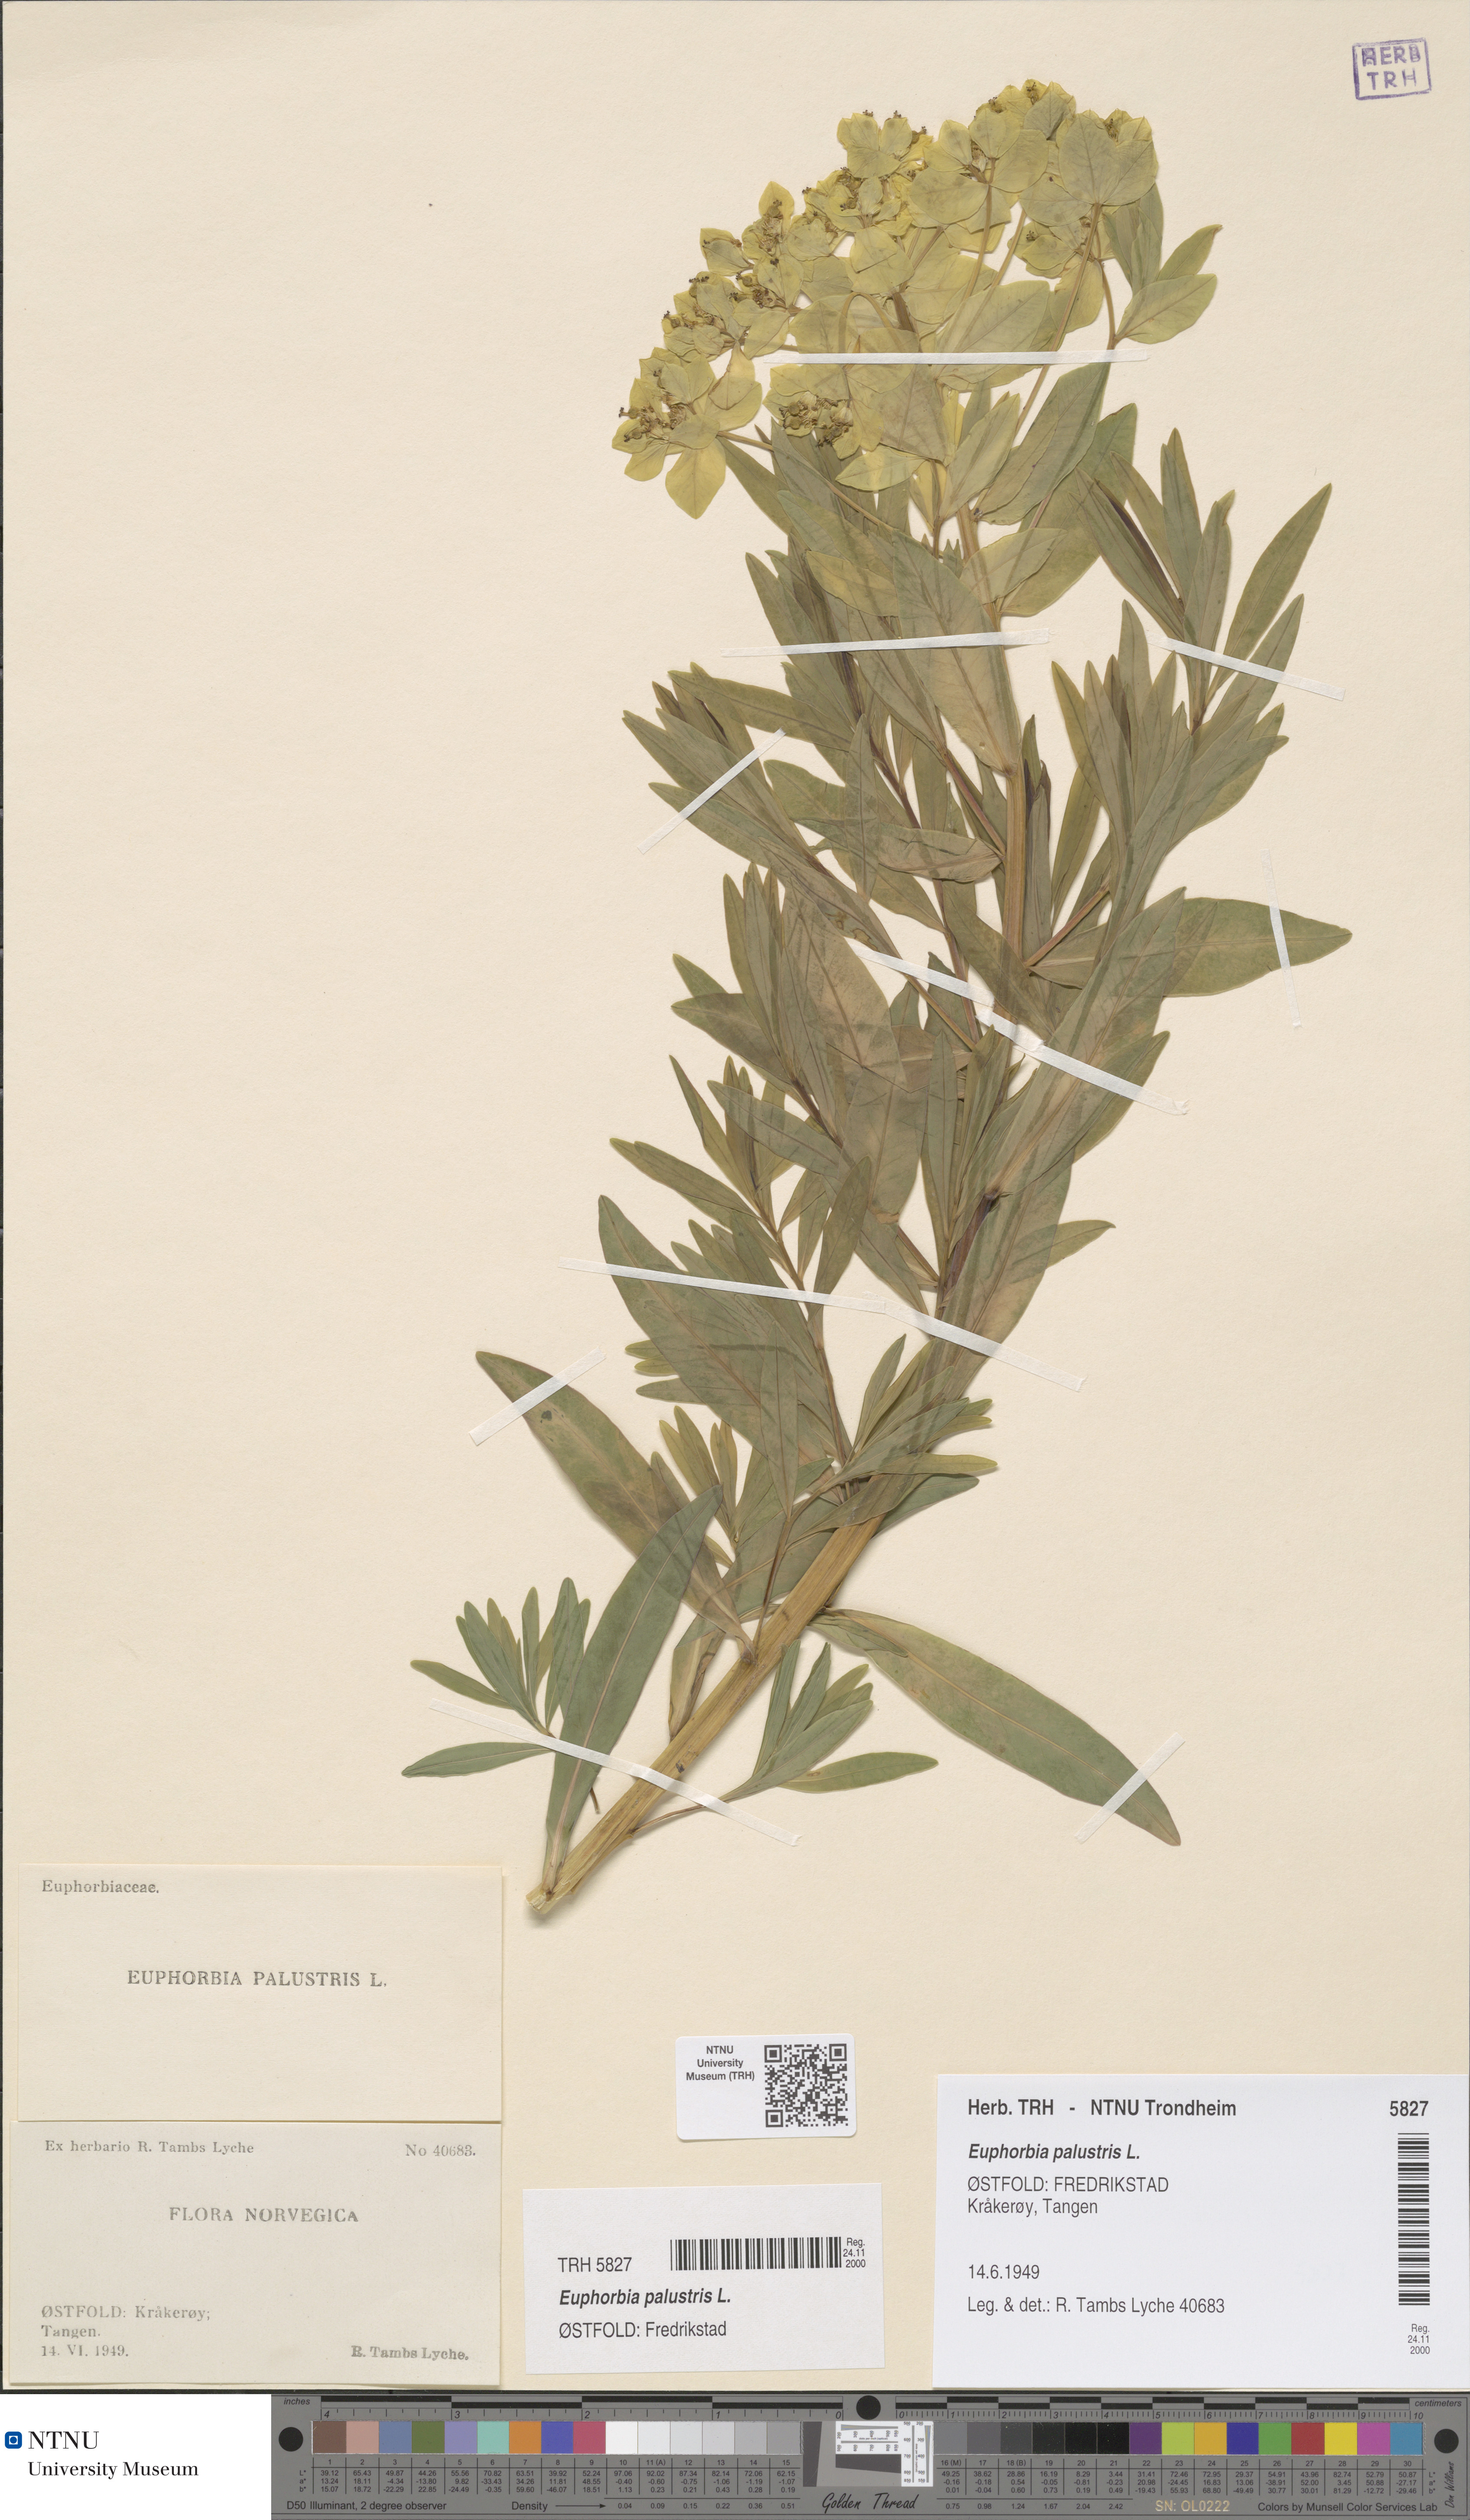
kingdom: Plantae
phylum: Tracheophyta
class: Magnoliopsida
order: Malpighiales
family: Euphorbiaceae
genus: Euphorbia
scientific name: Euphorbia palustris
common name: Marsh spurge
